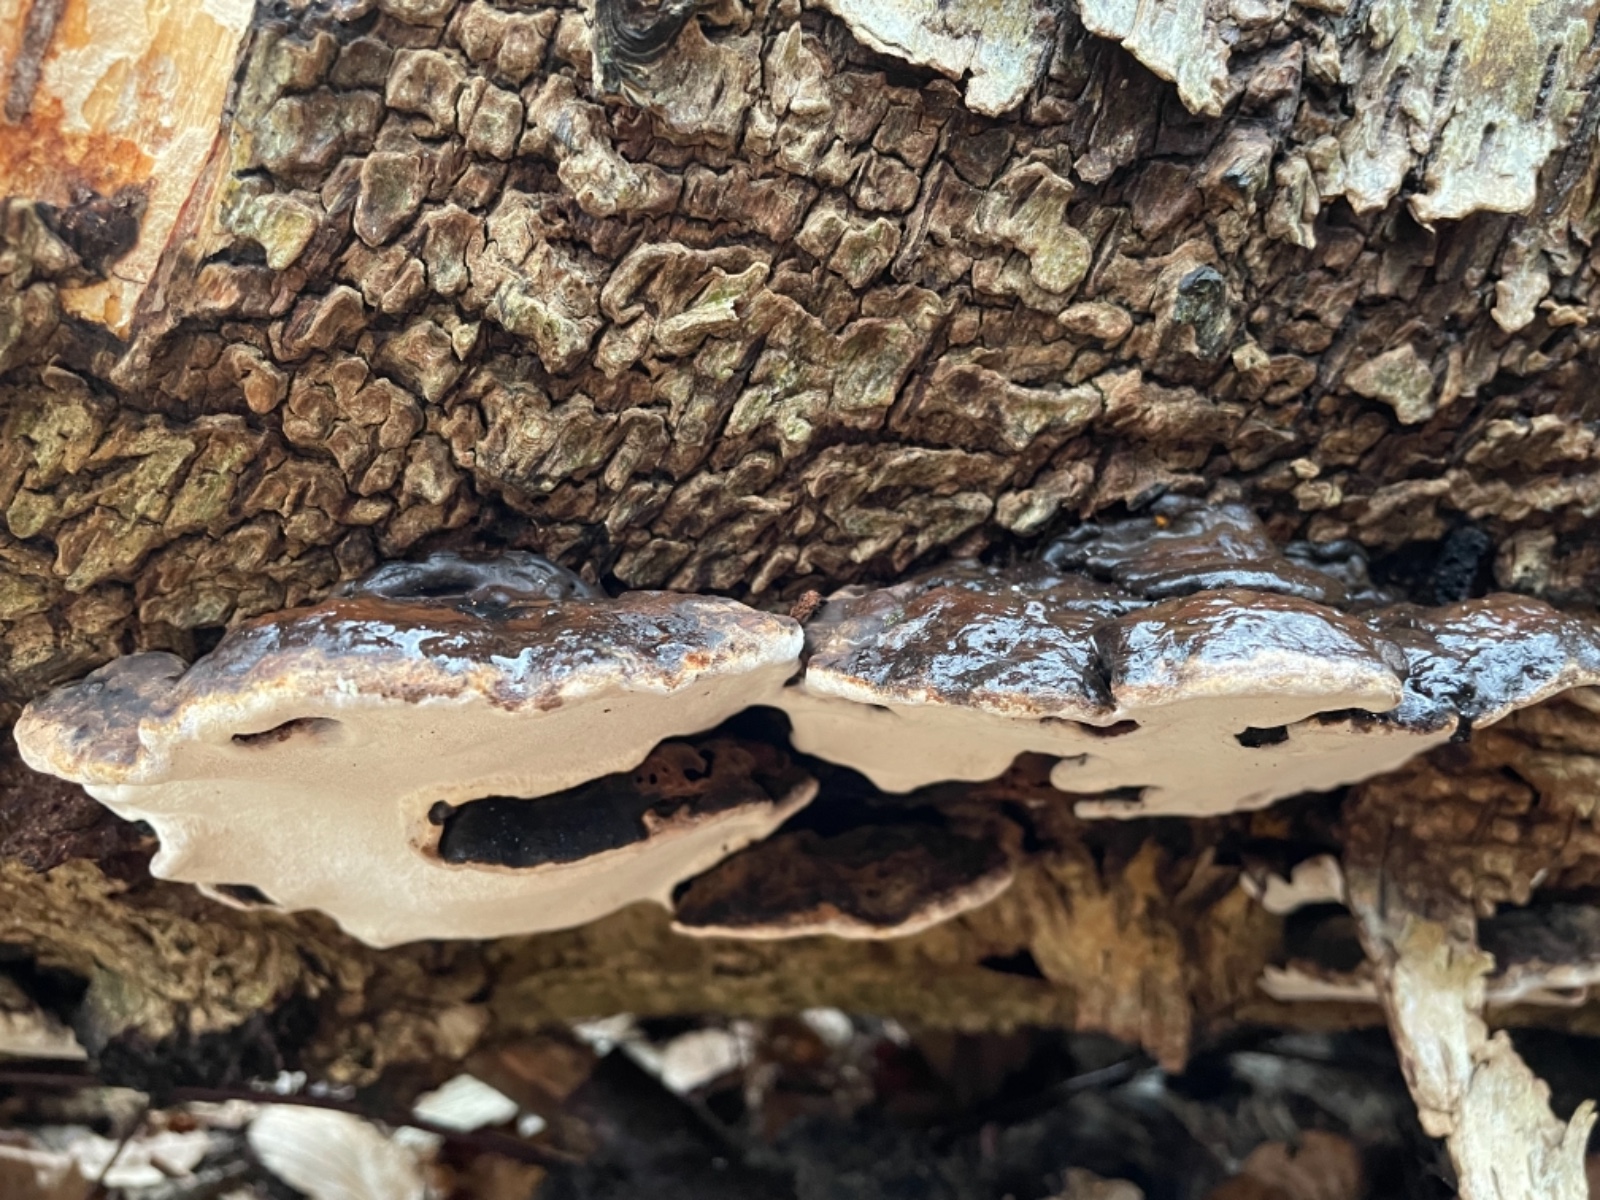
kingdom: Fungi
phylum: Basidiomycota
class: Agaricomycetes
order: Polyporales
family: Polyporaceae
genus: Ganoderma
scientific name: Ganoderma applanatum
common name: flad lakporesvamp
